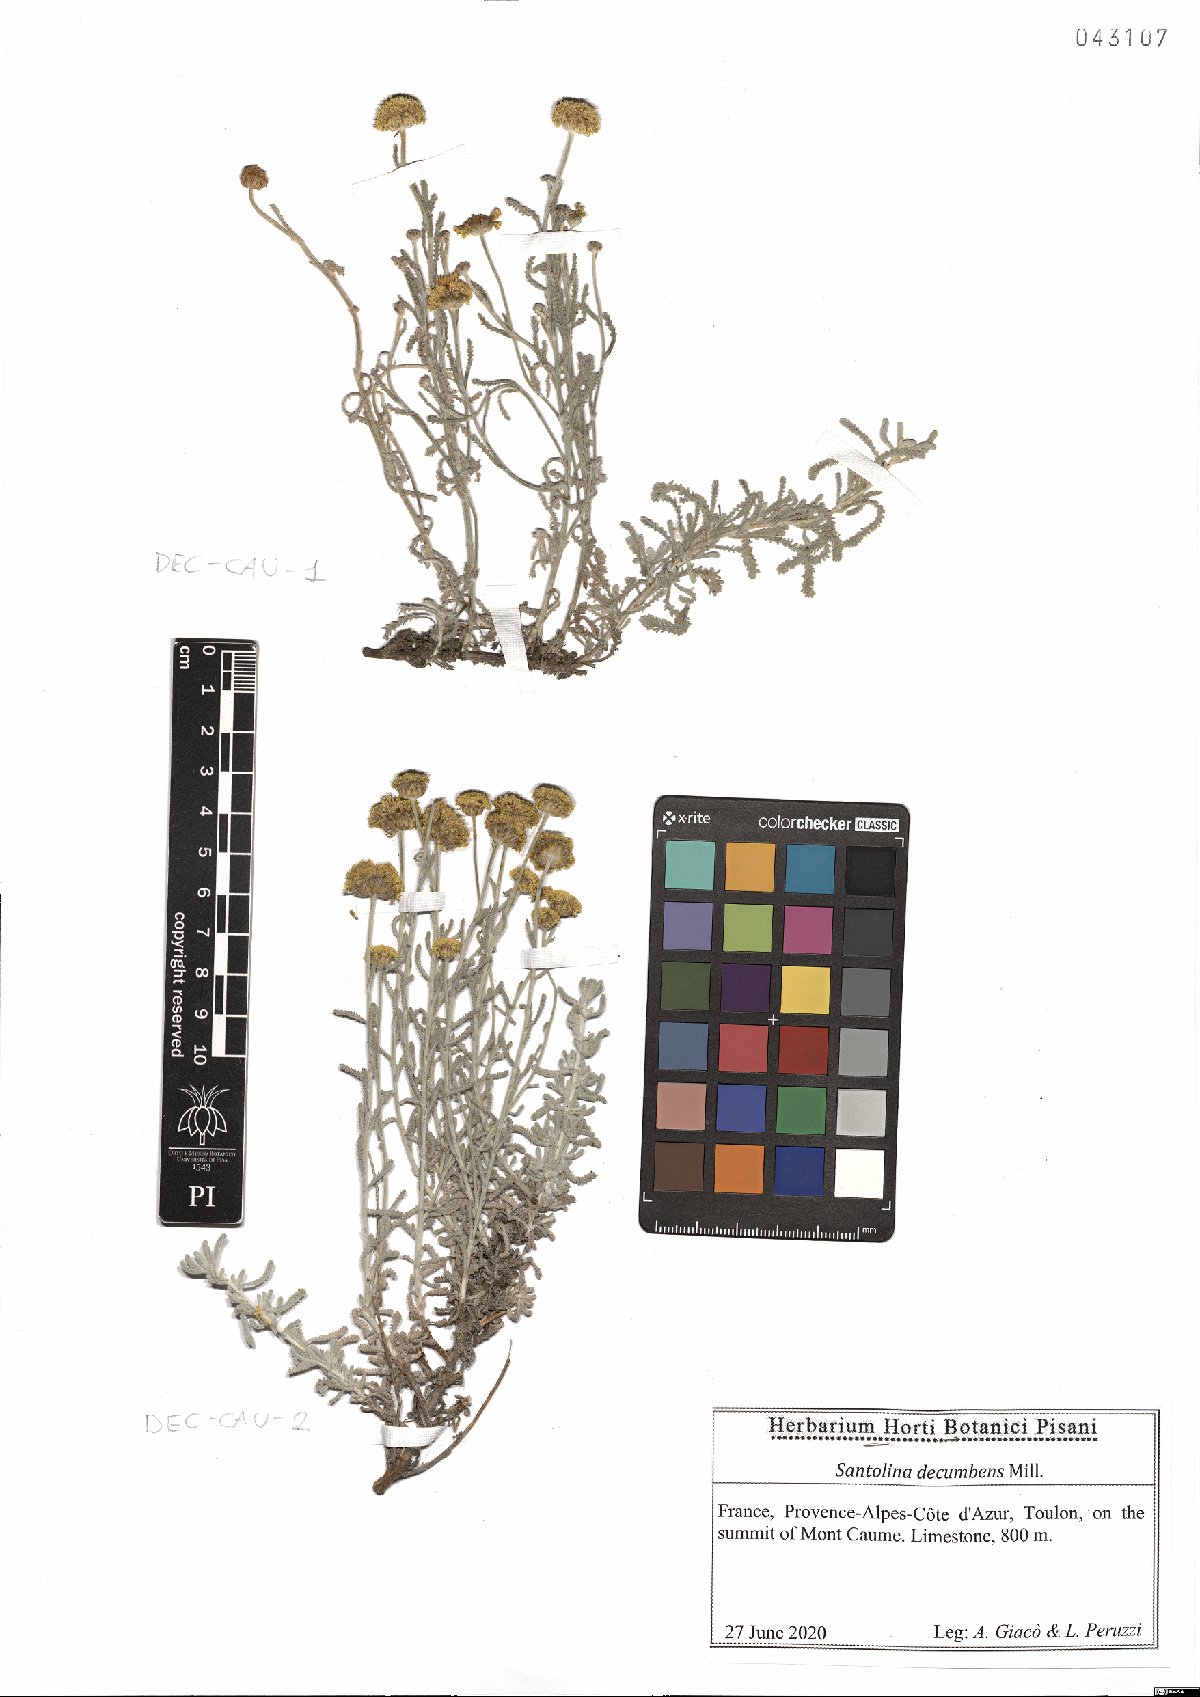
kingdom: Plantae
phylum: Tracheophyta
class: Magnoliopsida
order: Asterales
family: Asteraceae
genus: Santolina
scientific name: Santolina decumbens
